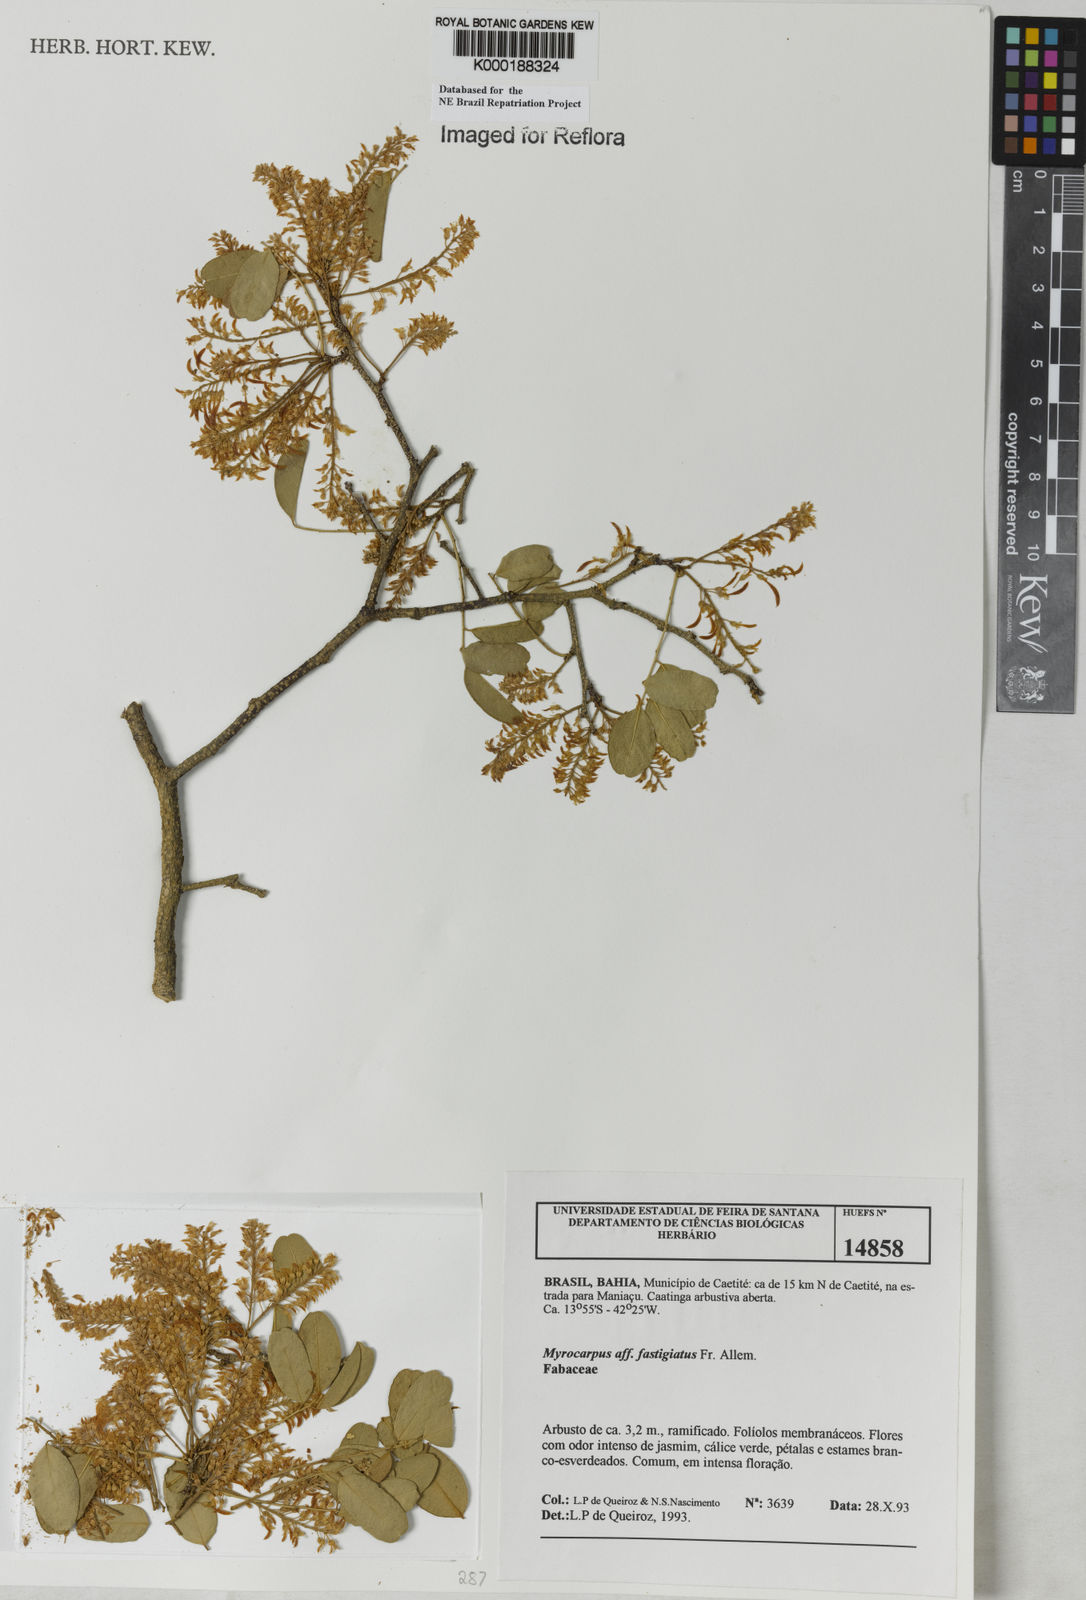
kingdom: Plantae
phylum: Tracheophyta
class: Magnoliopsida
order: Fabales
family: Fabaceae
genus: Myrocarpus
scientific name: Myrocarpus fastigiatus
